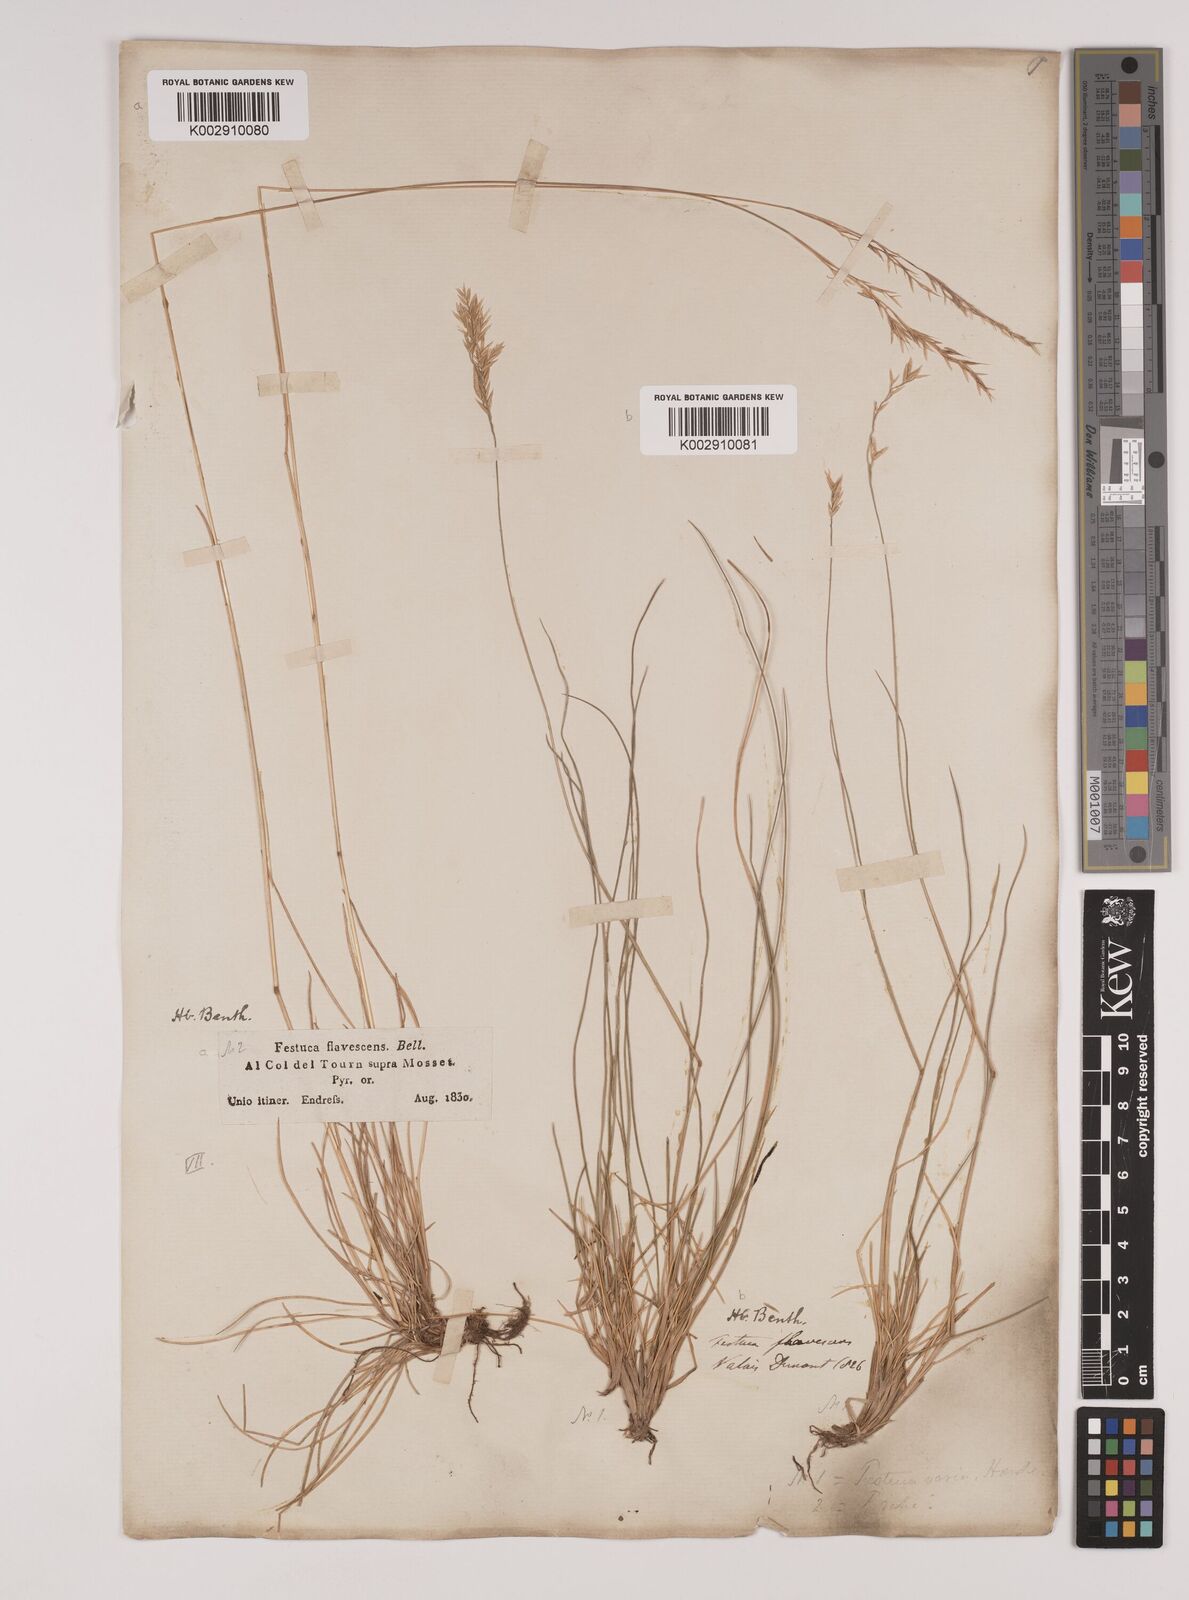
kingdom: Plantae
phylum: Tracheophyta
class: Liliopsida
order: Poales
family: Poaceae
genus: Festuca
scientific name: Festuca flavescens
